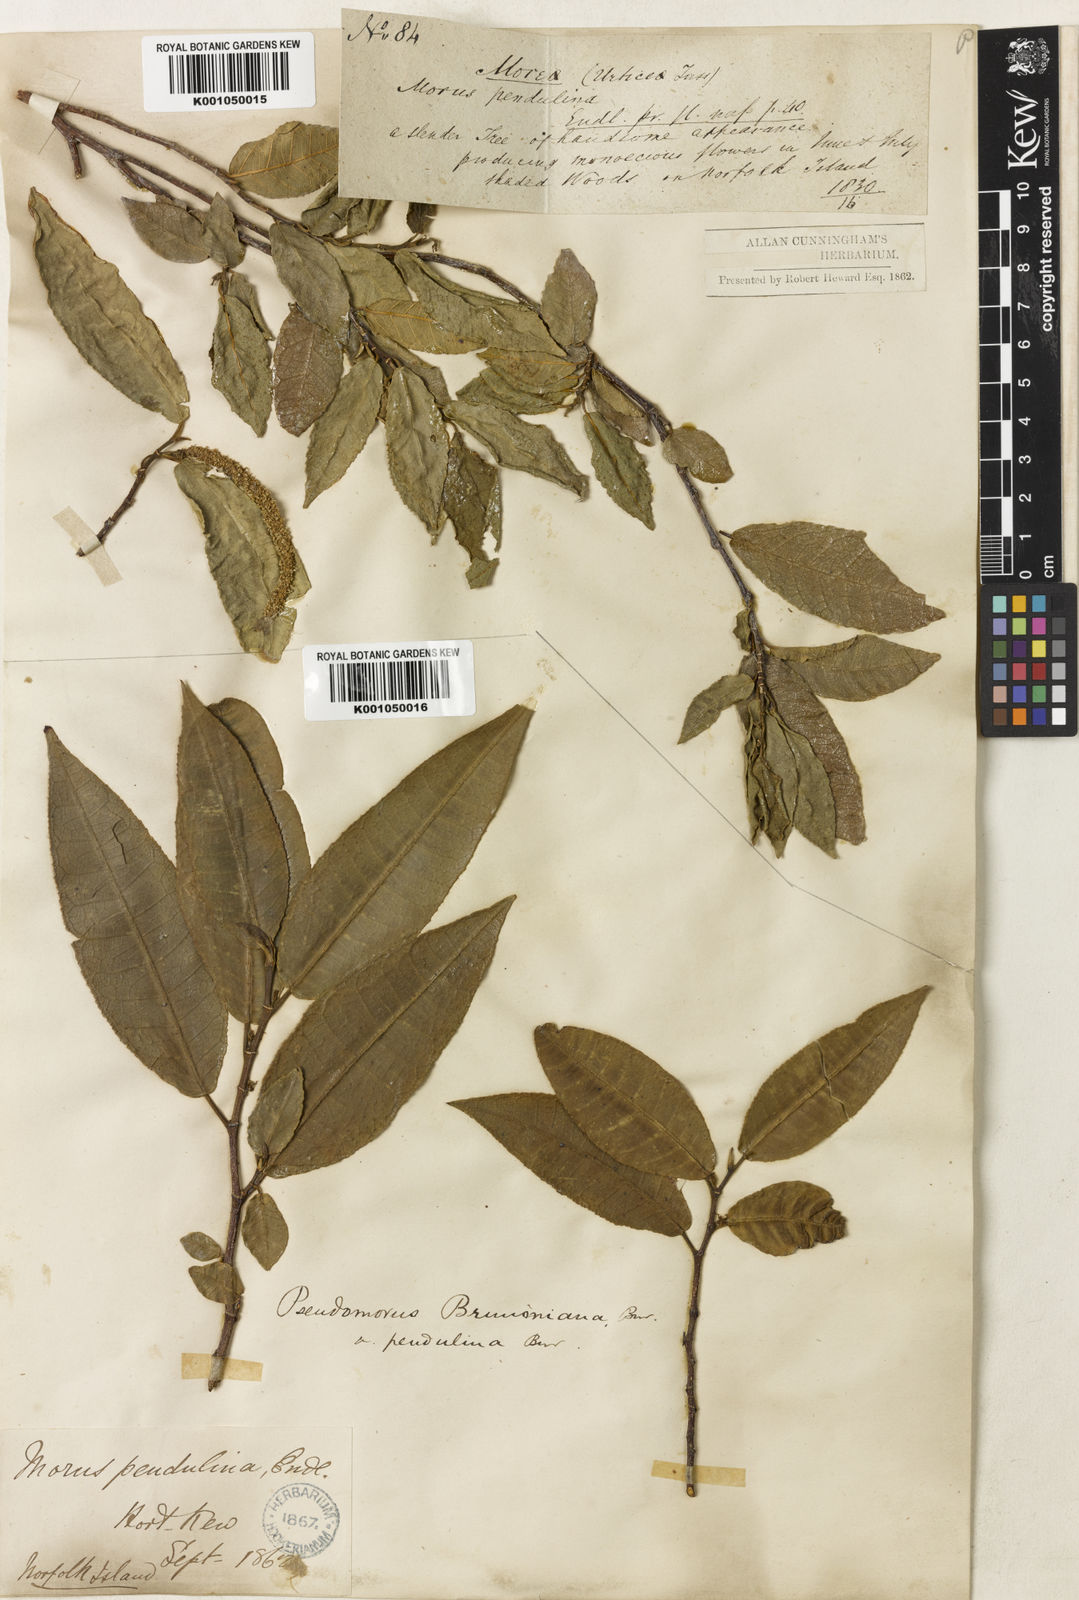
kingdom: Plantae
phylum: Tracheophyta
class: Magnoliopsida
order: Rosales
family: Moraceae
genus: Paratrophis
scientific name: Paratrophis pendulina
